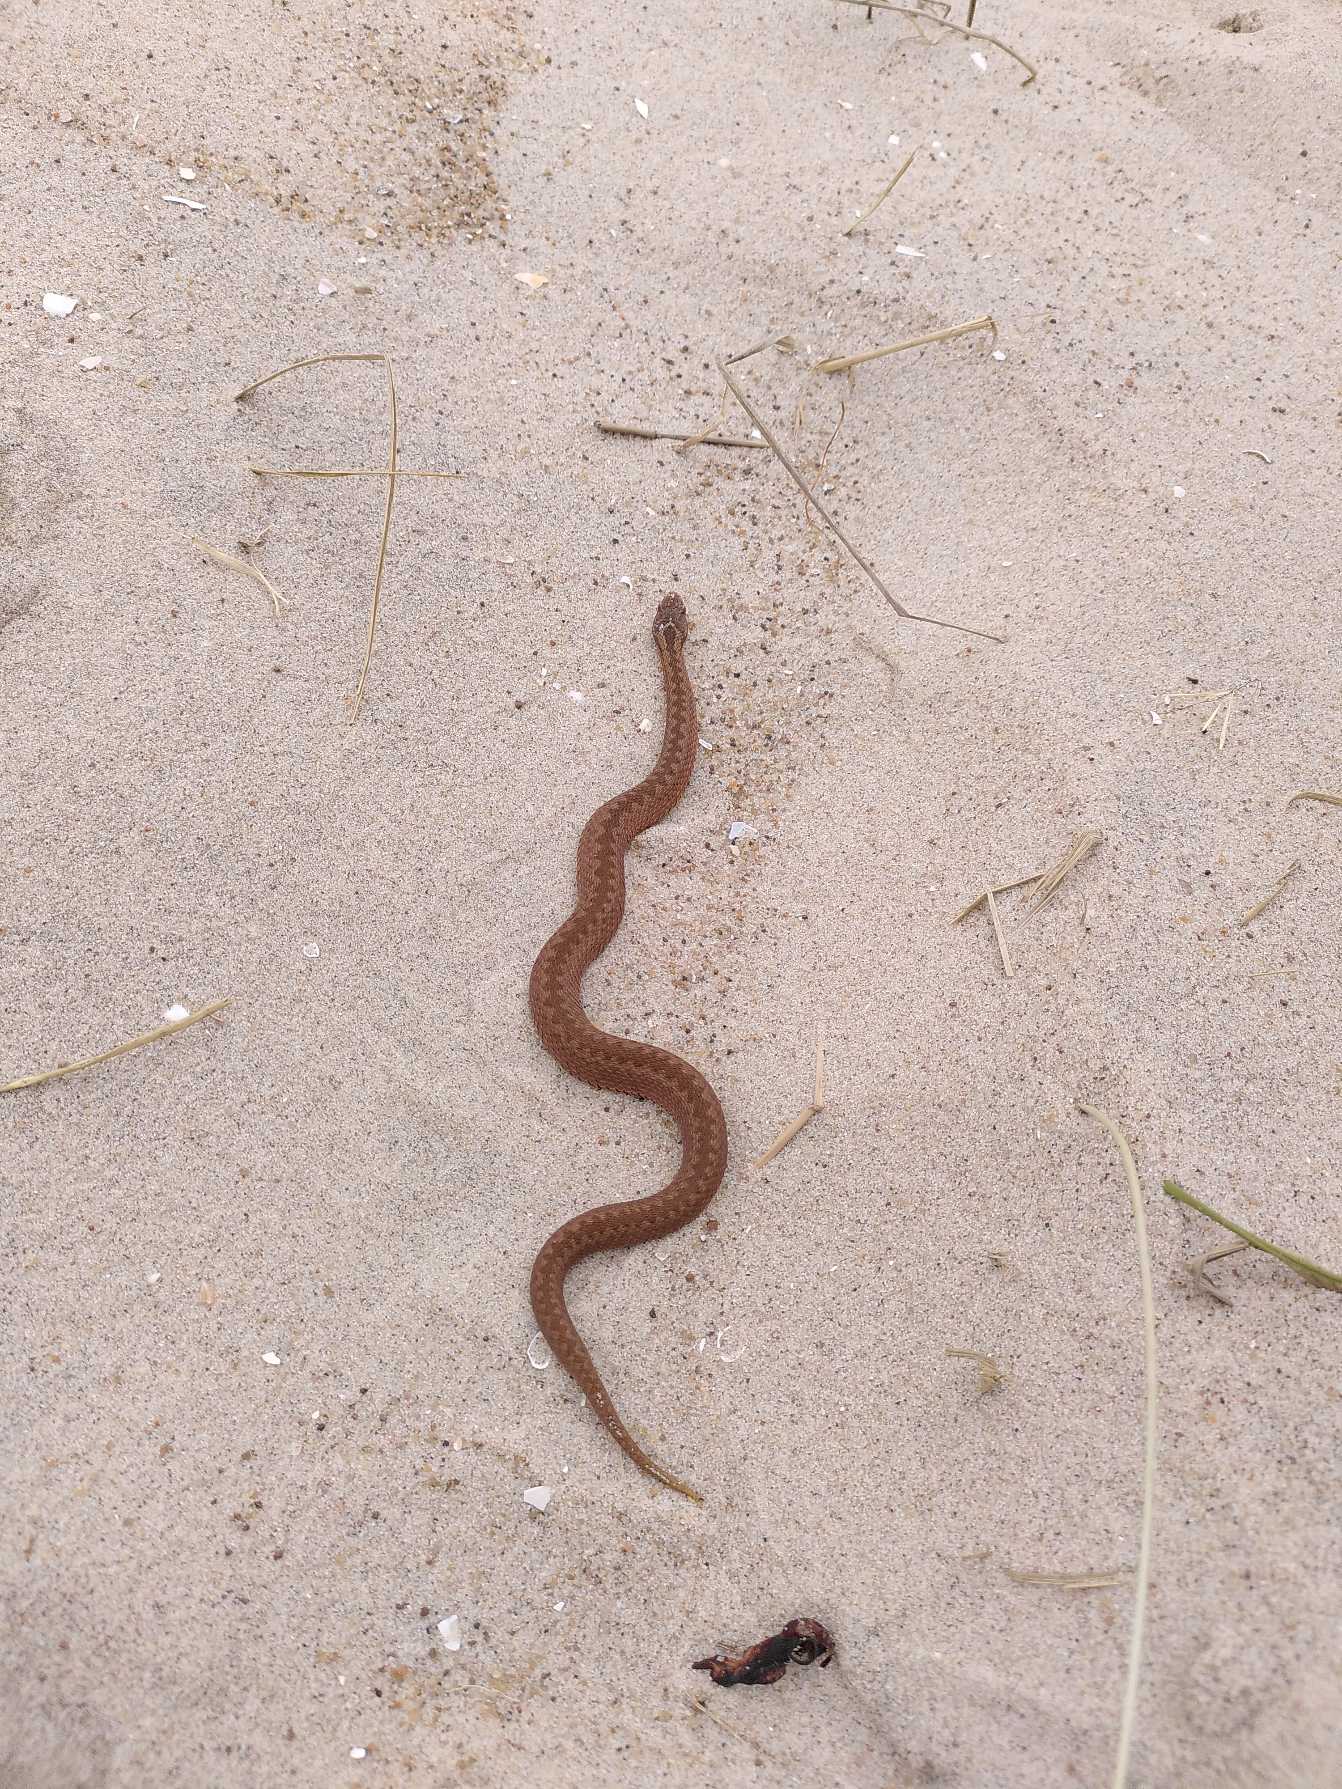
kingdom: Animalia
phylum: Chordata
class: Squamata
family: Viperidae
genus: Vipera
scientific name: Vipera berus
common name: Hugorm
